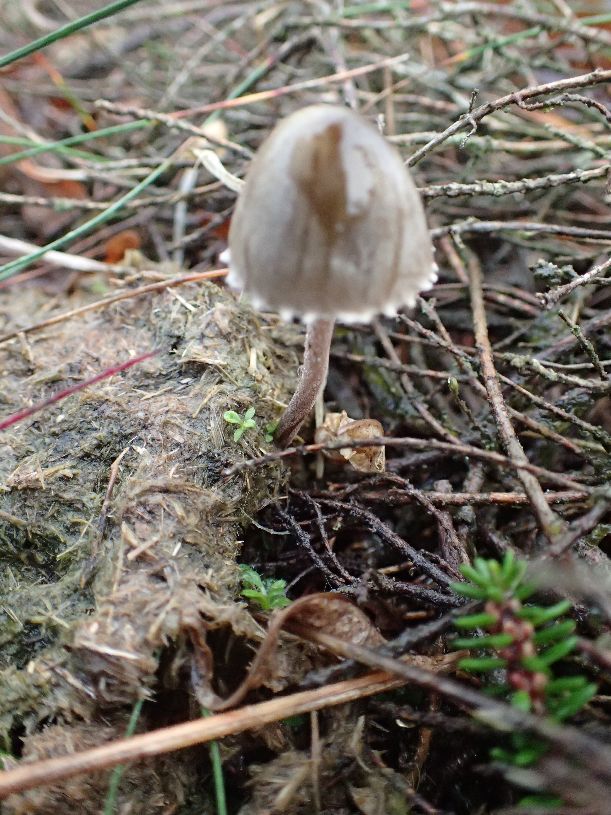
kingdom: Fungi
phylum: Basidiomycota
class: Agaricomycetes
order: Agaricales
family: Bolbitiaceae
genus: Panaeolus
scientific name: Panaeolus papilionaceus
